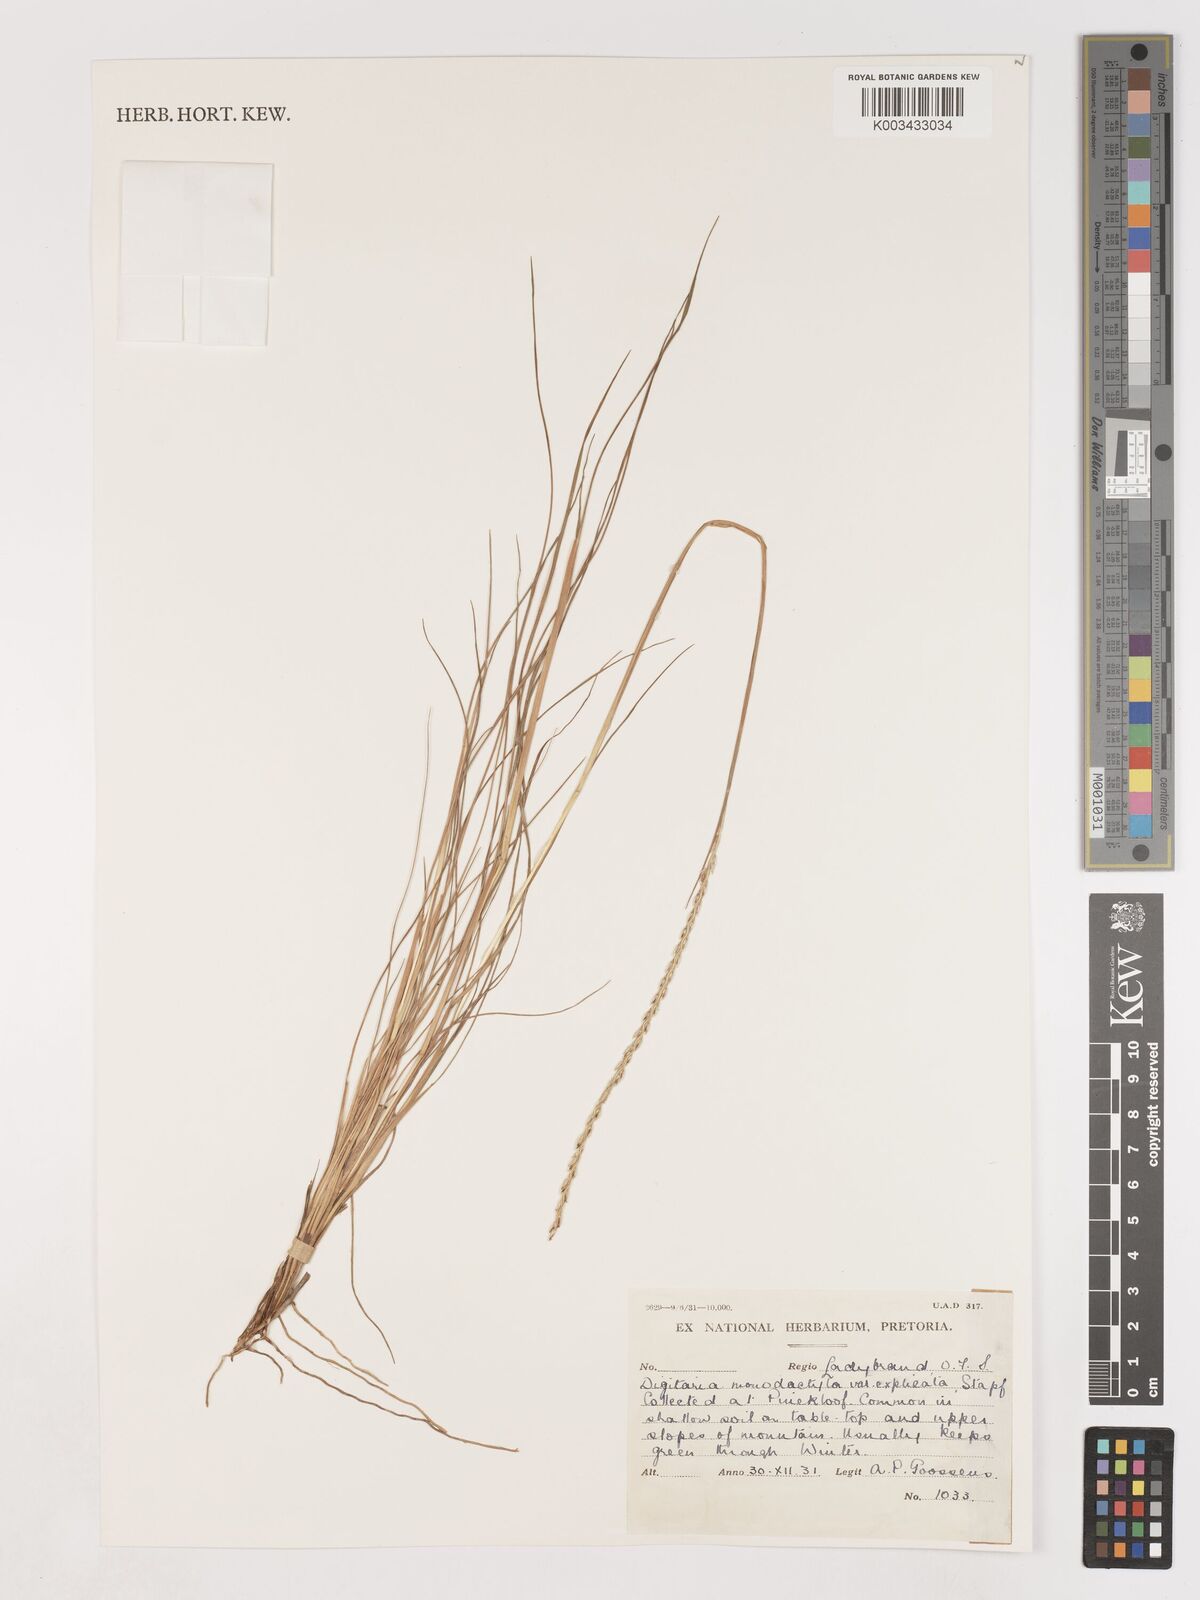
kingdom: Plantae
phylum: Tracheophyta
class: Liliopsida
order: Poales
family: Poaceae
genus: Digitaria
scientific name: Digitaria monodactyla
